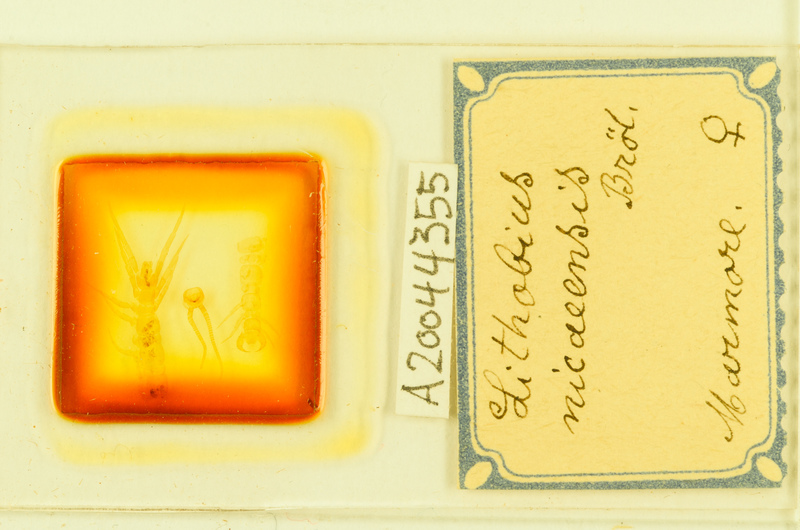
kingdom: Animalia
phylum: Arthropoda
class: Chilopoda
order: Lithobiomorpha
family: Lithobiidae
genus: Lithobius
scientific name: Lithobius tylopus
